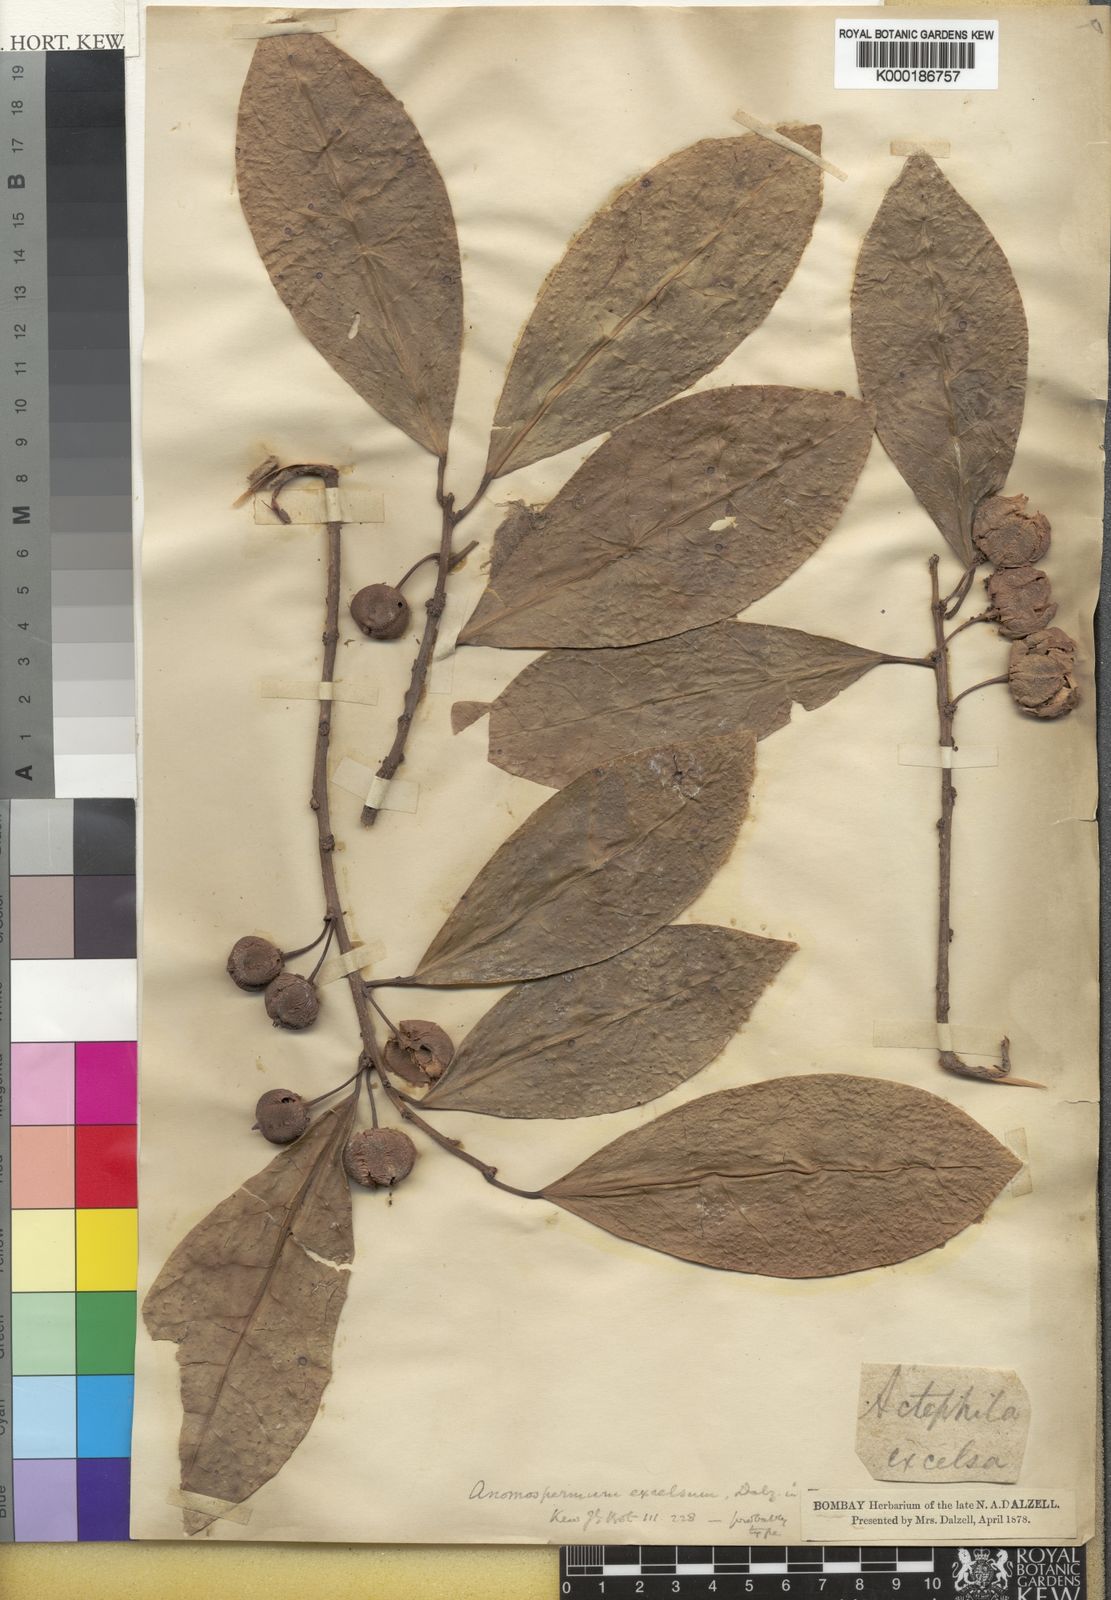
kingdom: Plantae
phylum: Tracheophyta
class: Magnoliopsida
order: Malpighiales
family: Phyllanthaceae
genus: Actephila
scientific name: Actephila
